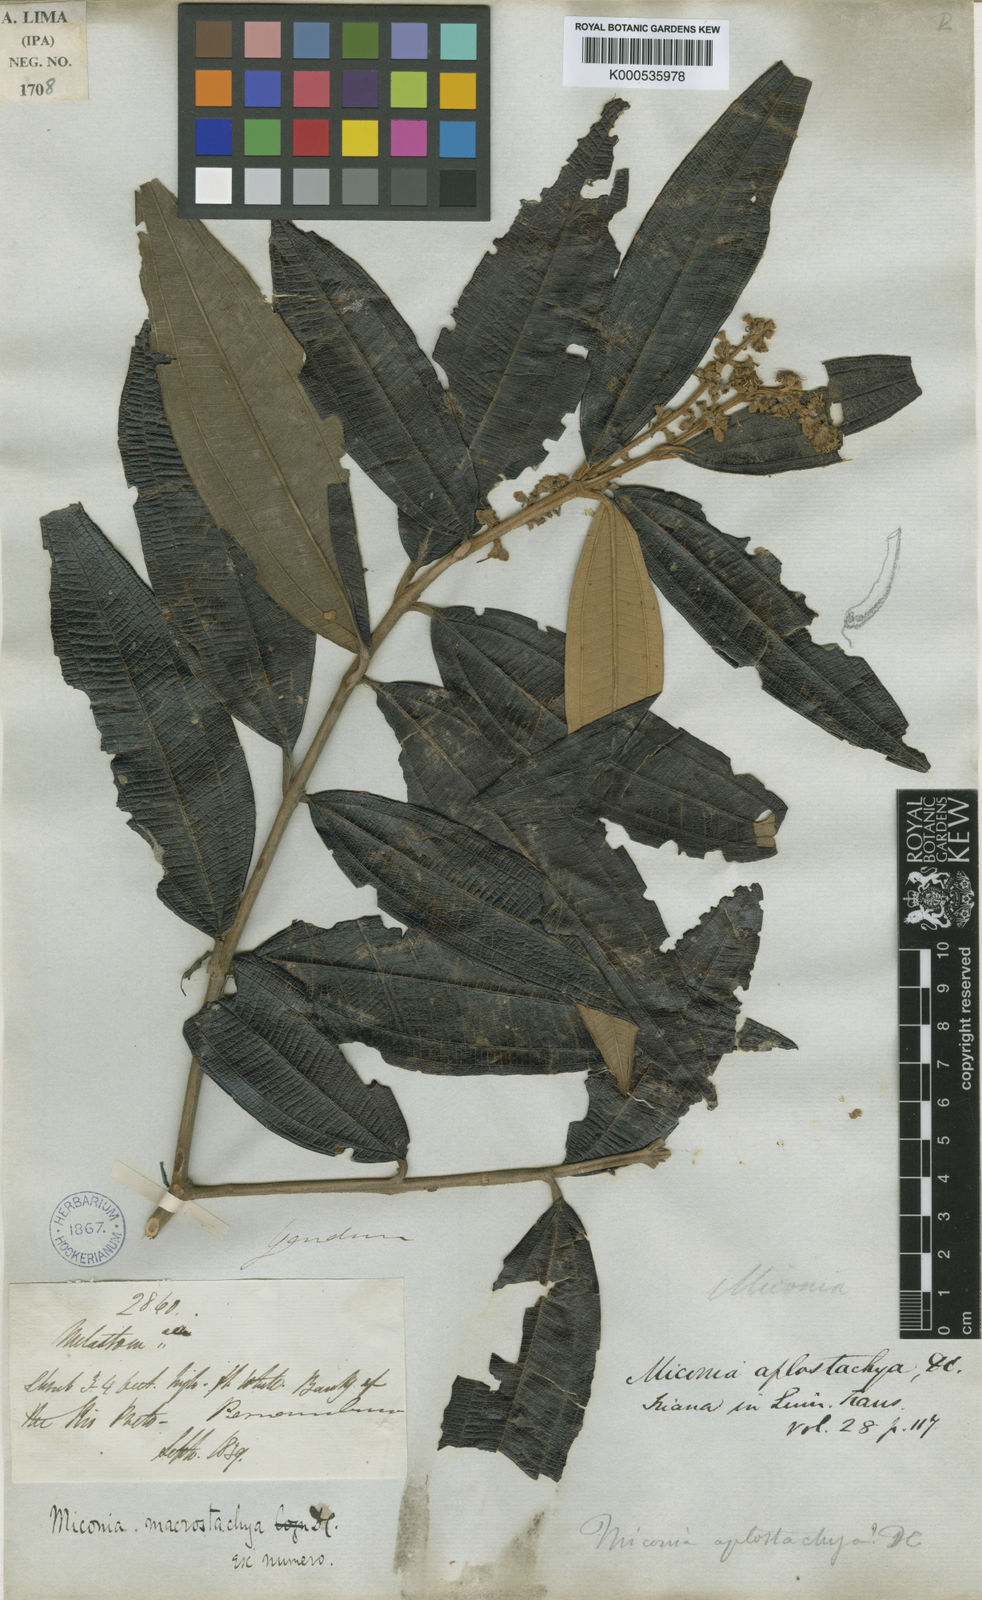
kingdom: Plantae
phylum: Tracheophyta
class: Magnoliopsida
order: Myrtales
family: Melastomataceae
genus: Miconia
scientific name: Miconia aplostachya
